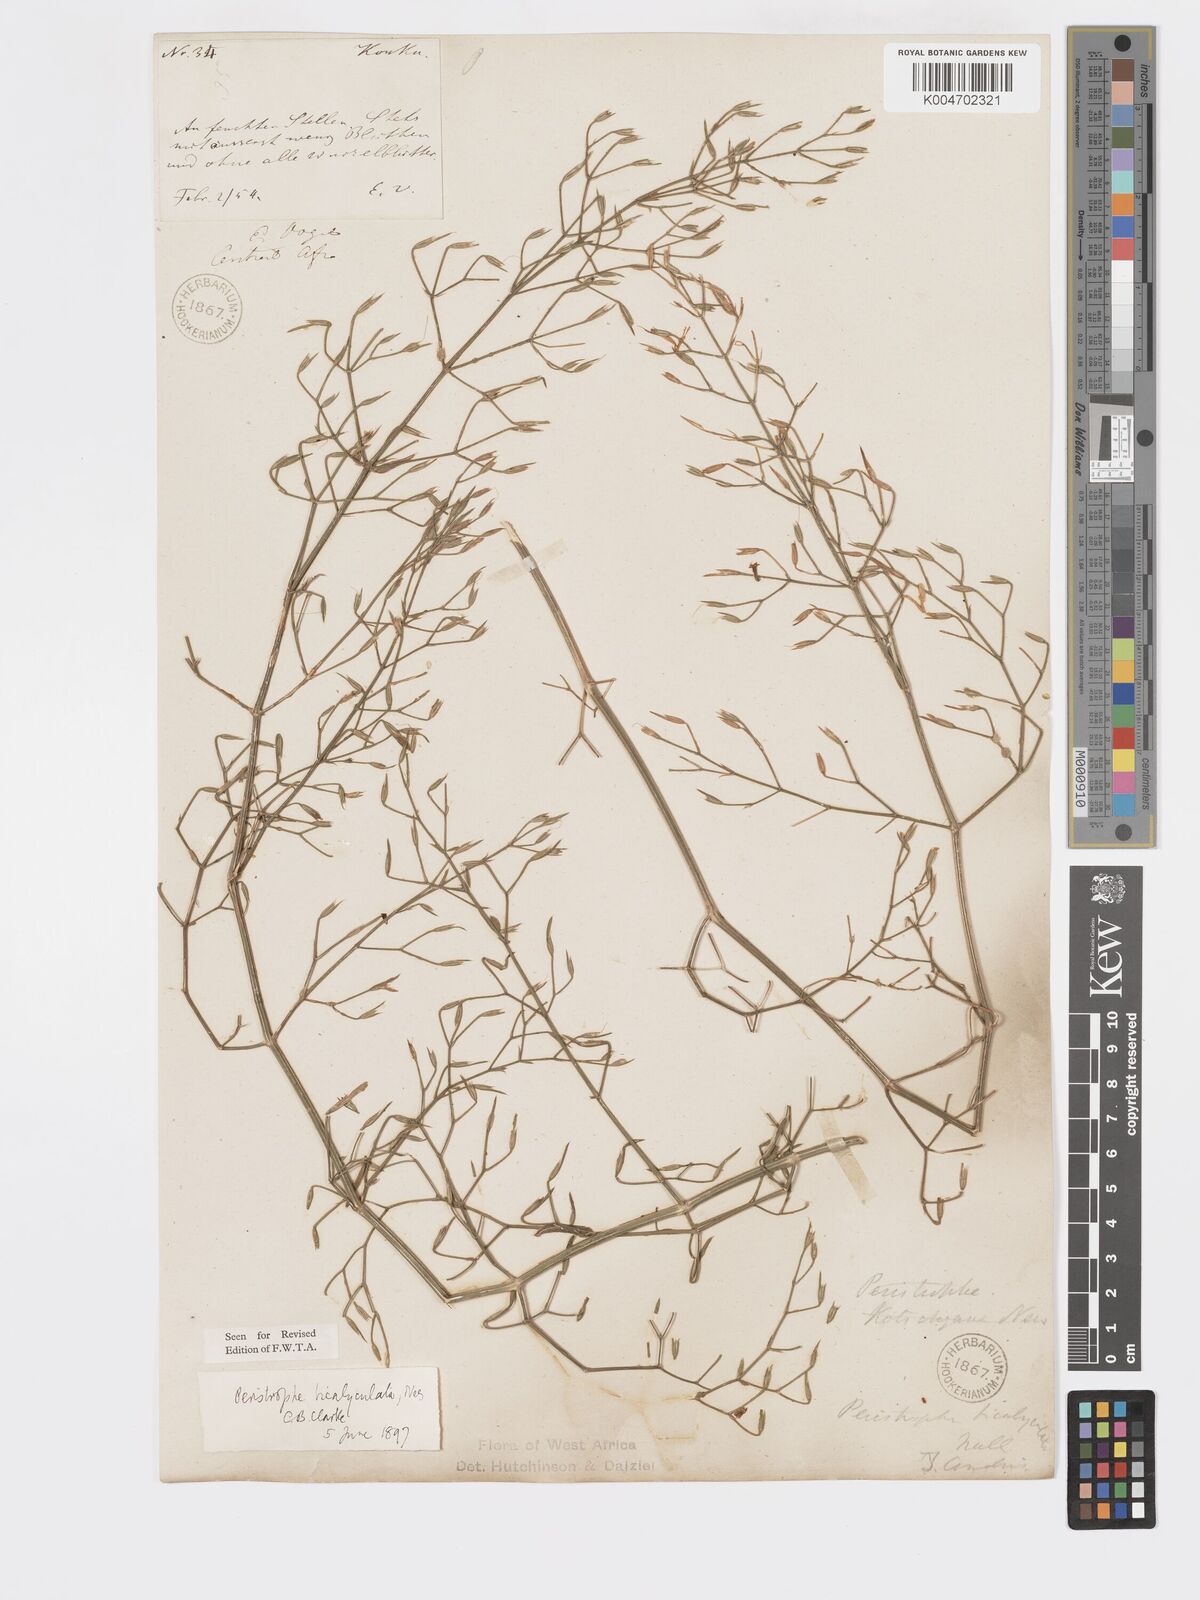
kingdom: Plantae
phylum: Tracheophyta
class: Magnoliopsida
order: Lamiales
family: Acanthaceae
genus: Dicliptera
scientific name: Dicliptera paniculata
